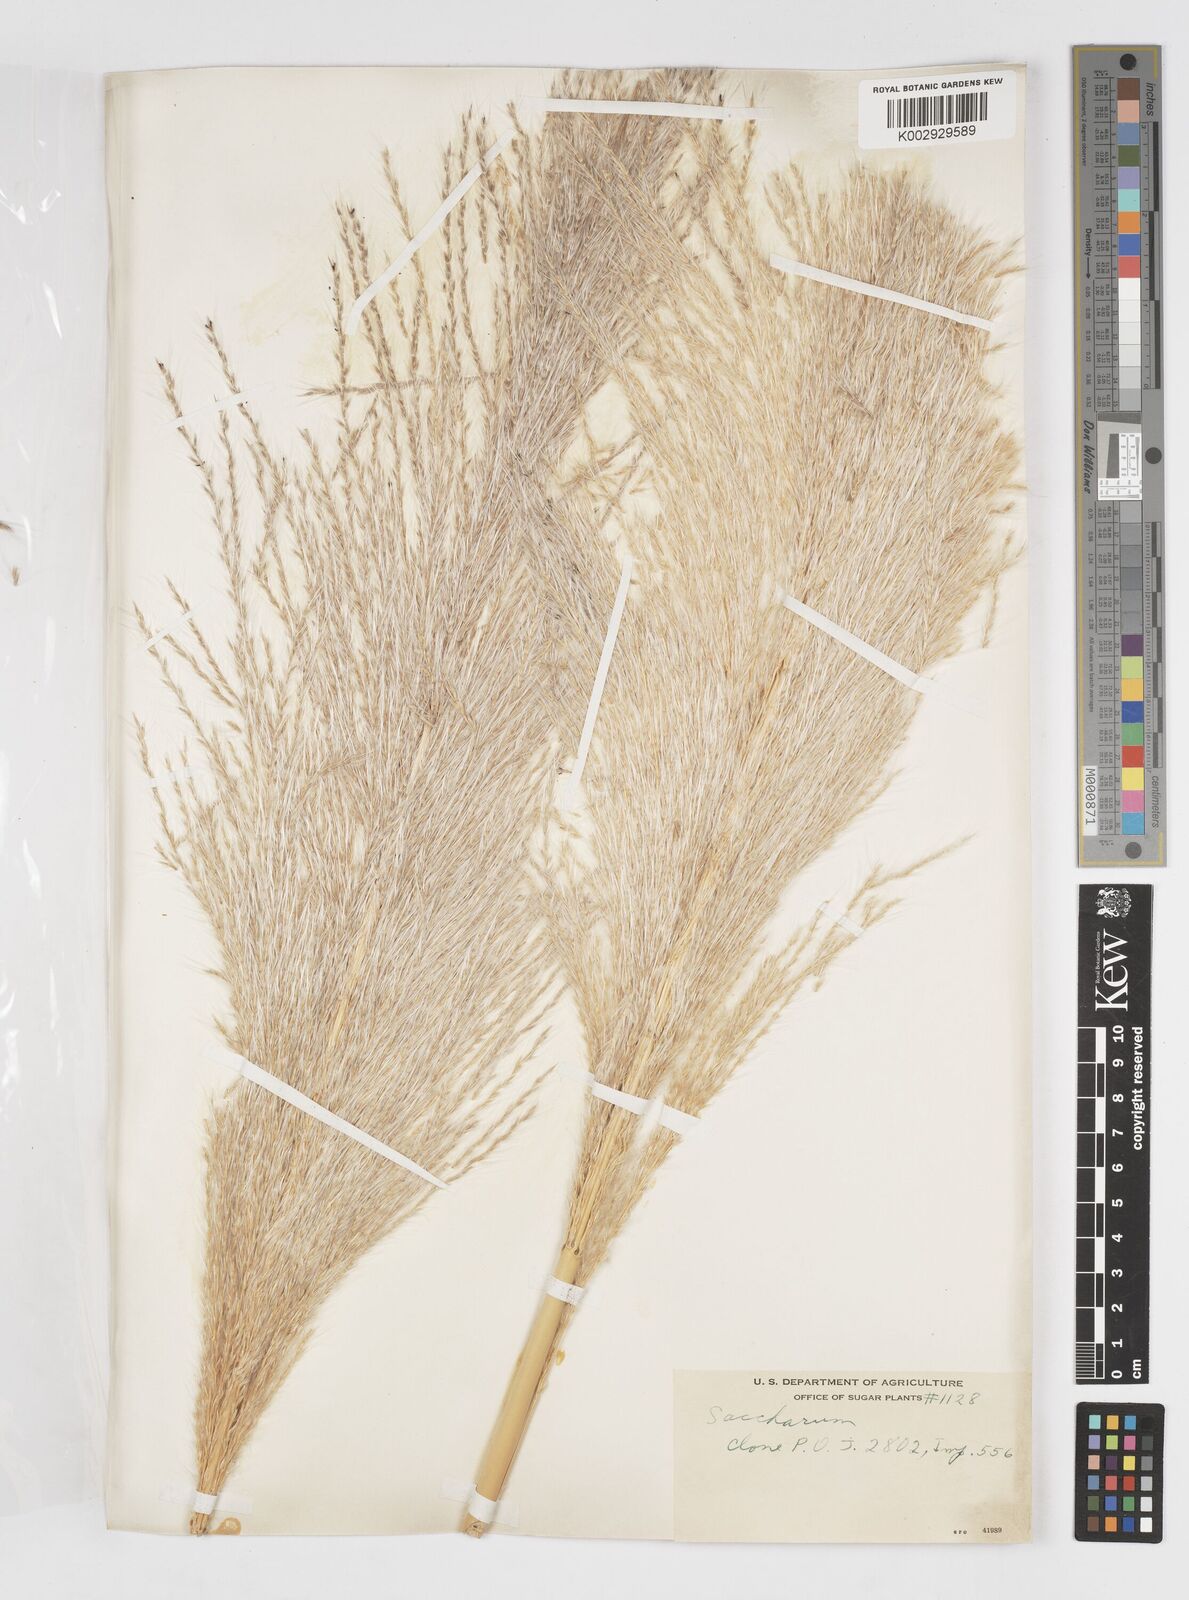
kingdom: Plantae
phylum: Tracheophyta
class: Liliopsida
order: Poales
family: Poaceae
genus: Saccharum
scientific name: Saccharum officinarum
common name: Sugarcane
